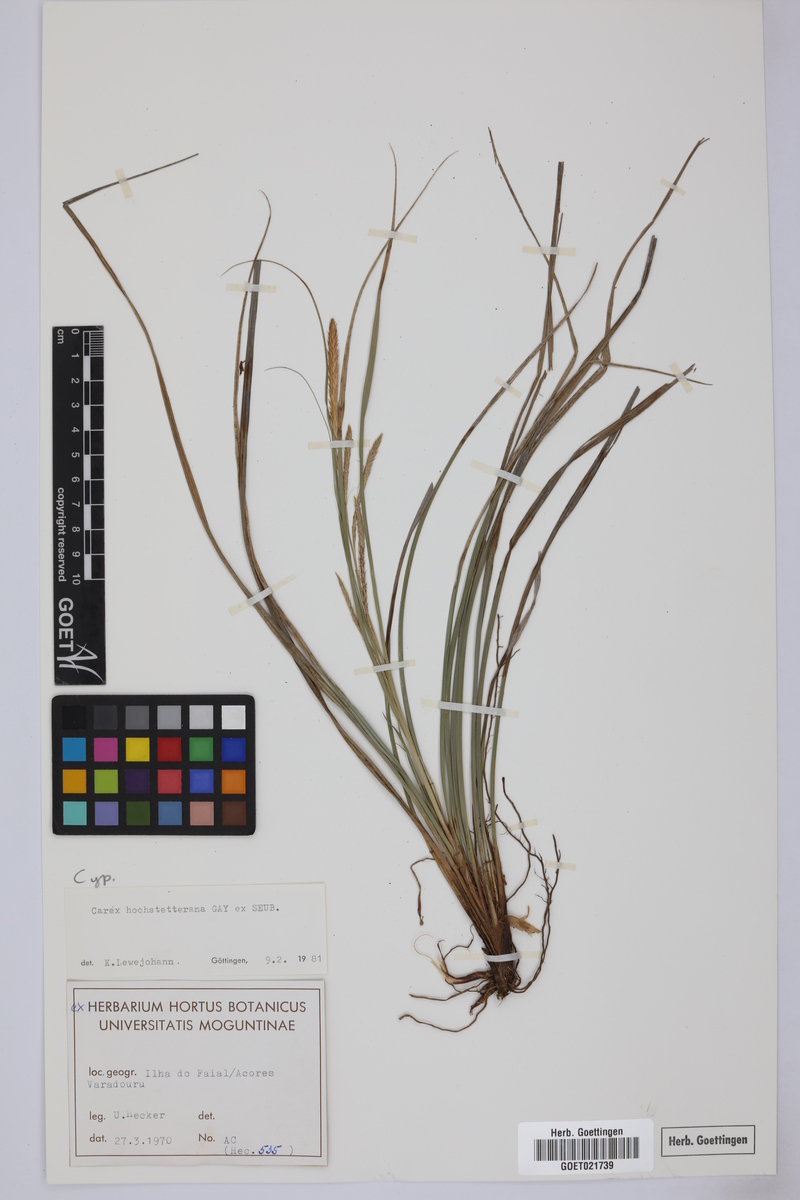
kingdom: Plantae
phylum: Tracheophyta
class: Liliopsida
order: Poales
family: Cyperaceae
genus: Carex
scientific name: Carex hochstetteriana
